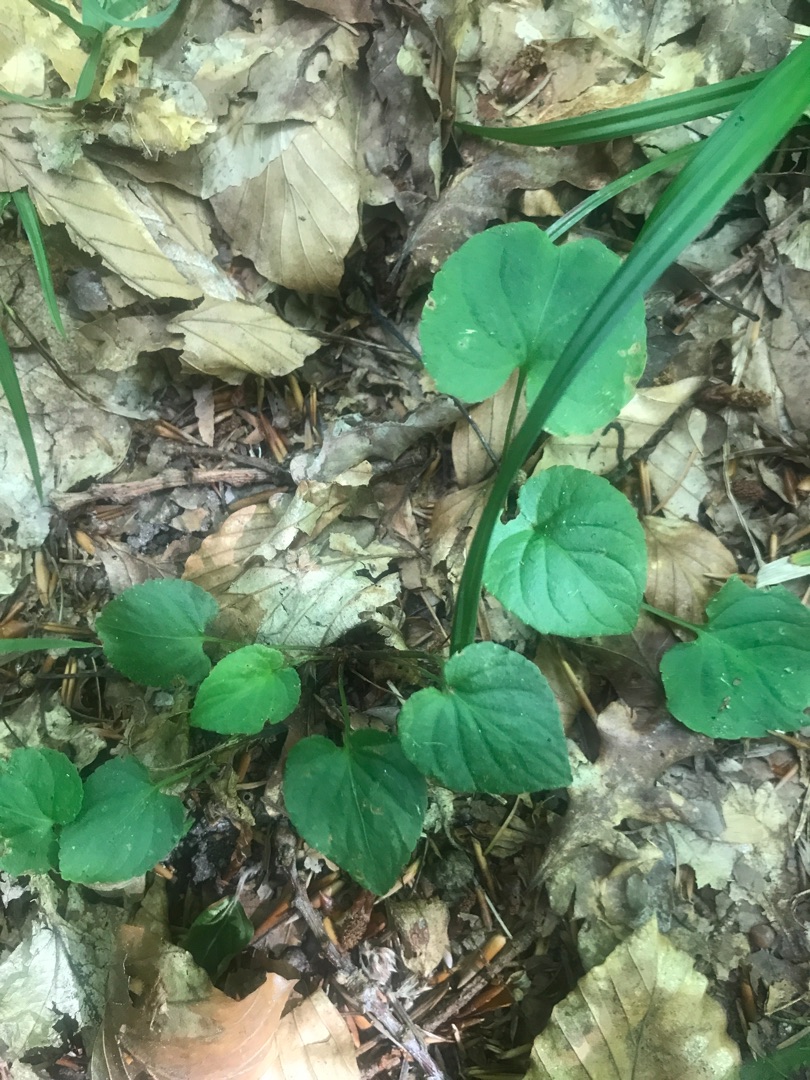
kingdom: Plantae
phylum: Tracheophyta
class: Magnoliopsida
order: Malpighiales
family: Violaceae
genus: Viola
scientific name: Viola
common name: Violslægten
